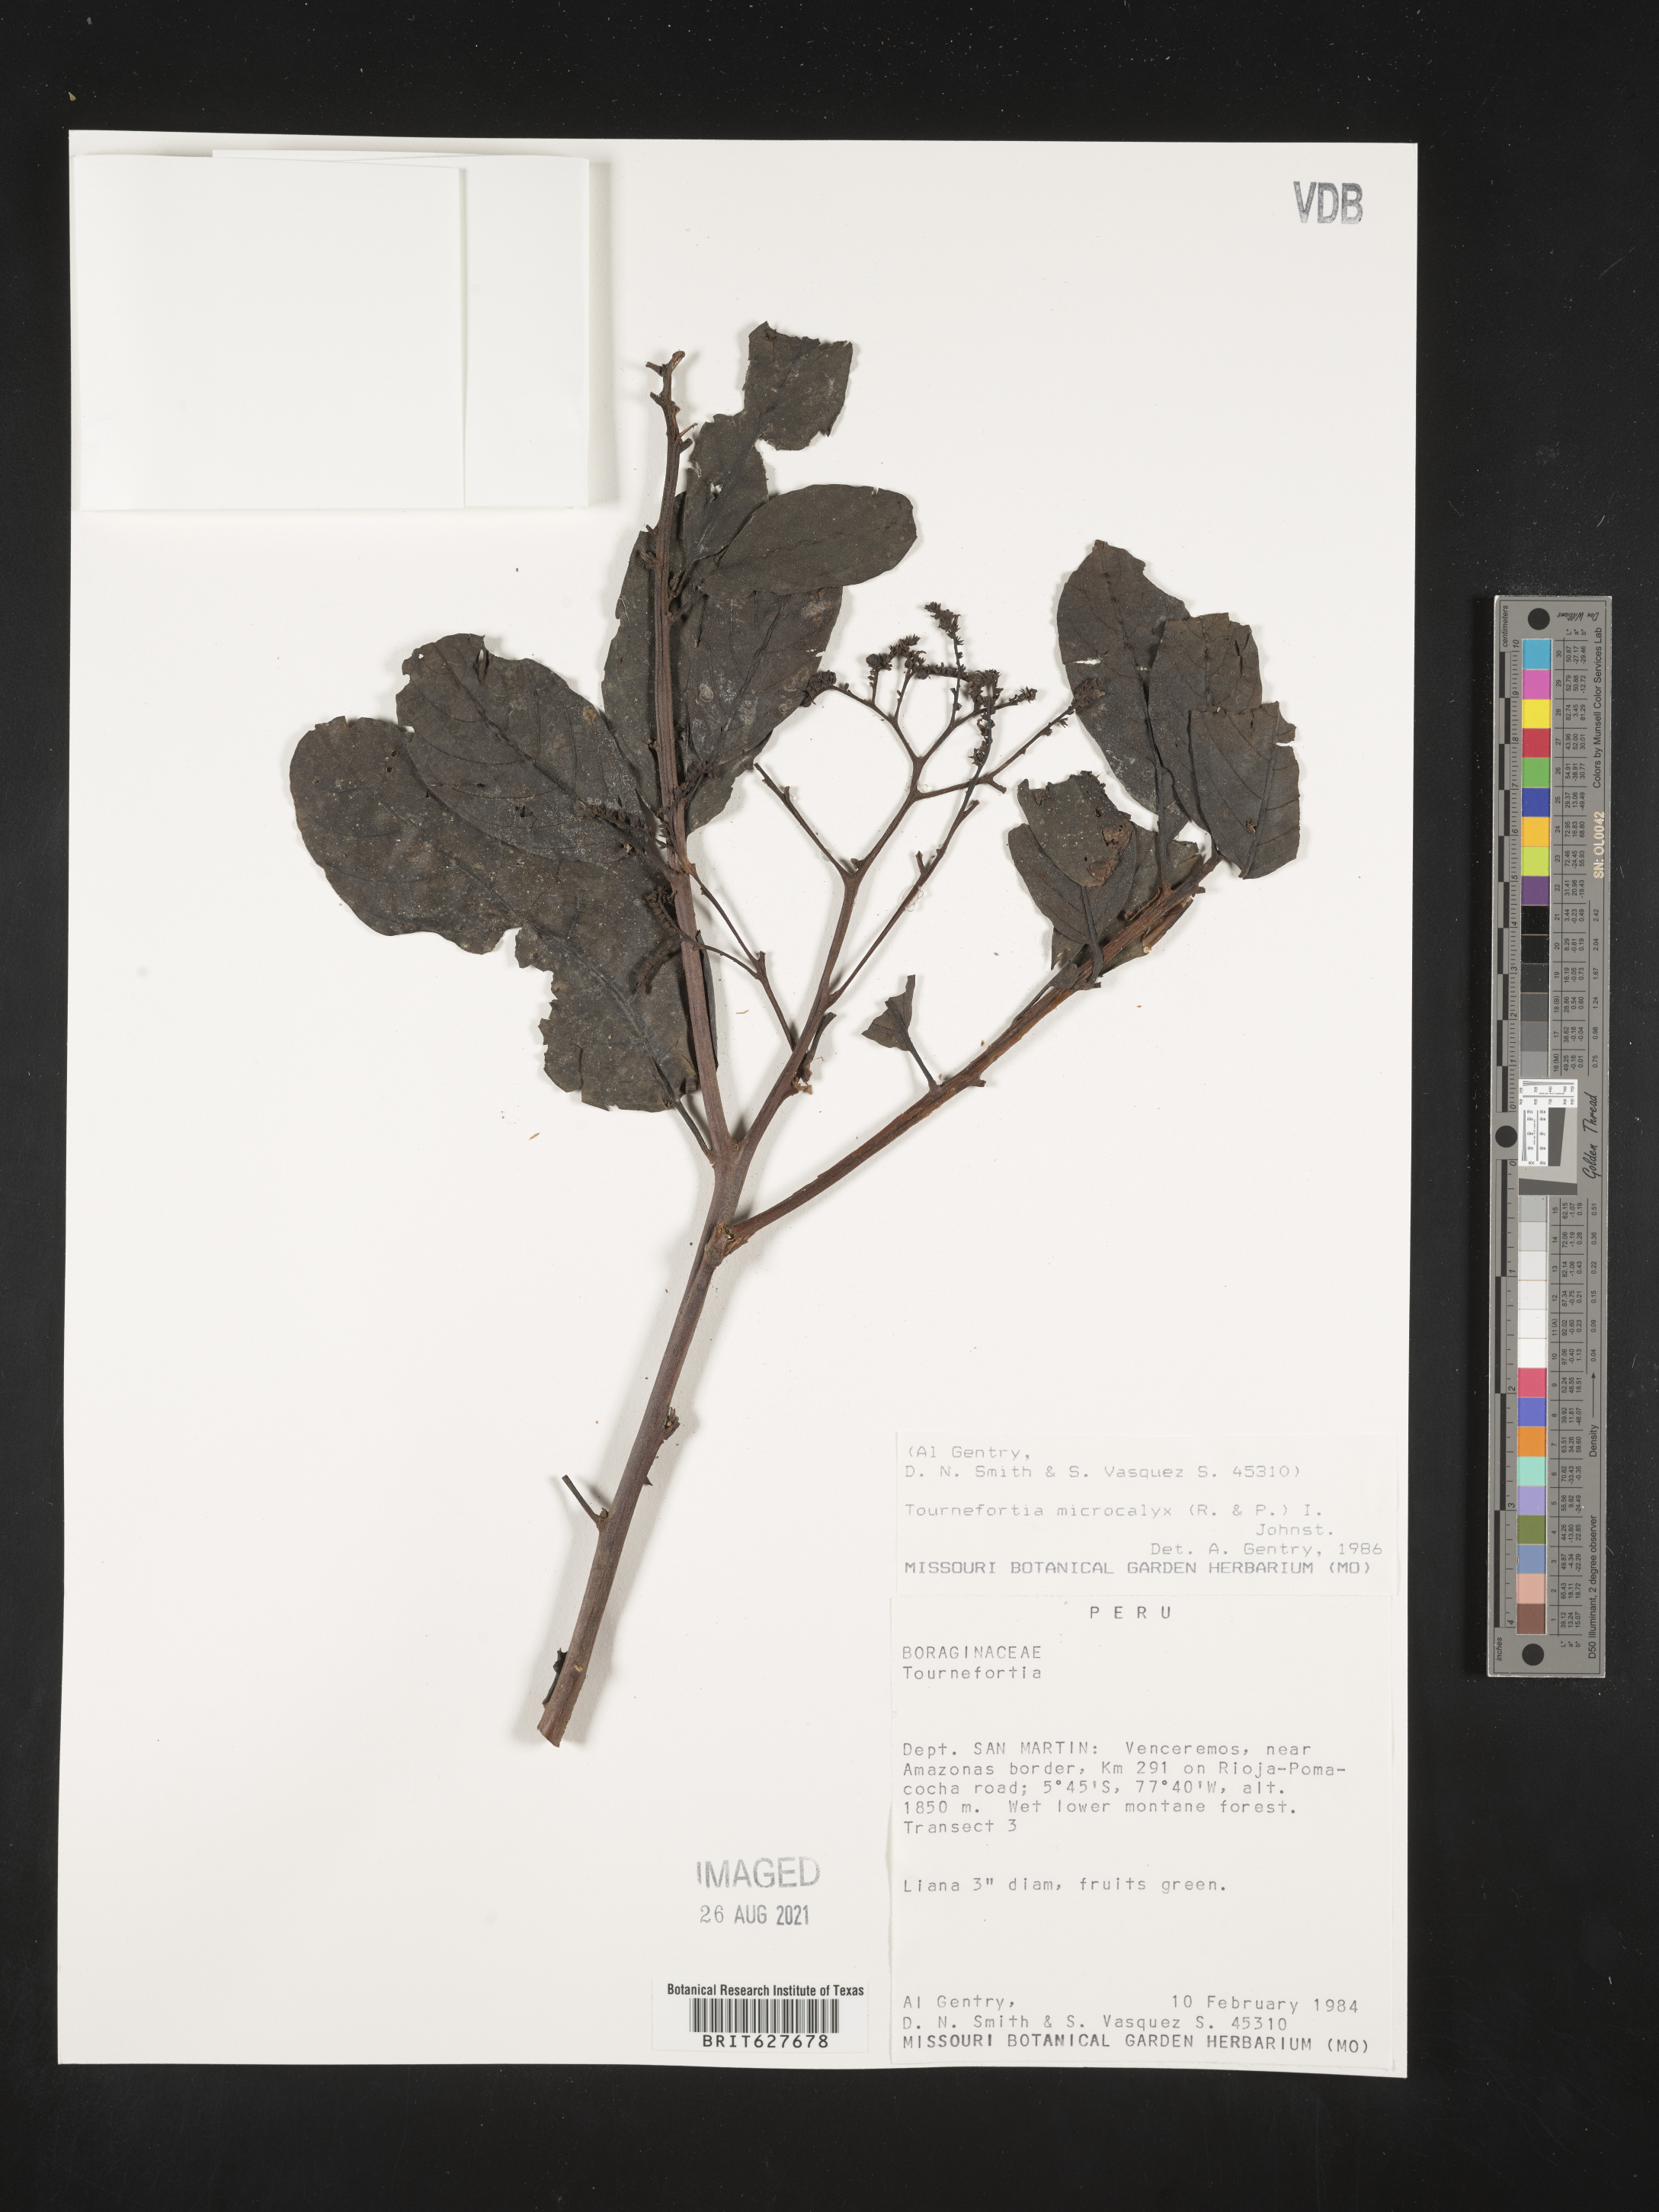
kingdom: Plantae
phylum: Tracheophyta
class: Magnoliopsida
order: Boraginales
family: Heliotropiaceae
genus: Tournefortia
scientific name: Tournefortia microcalyx
